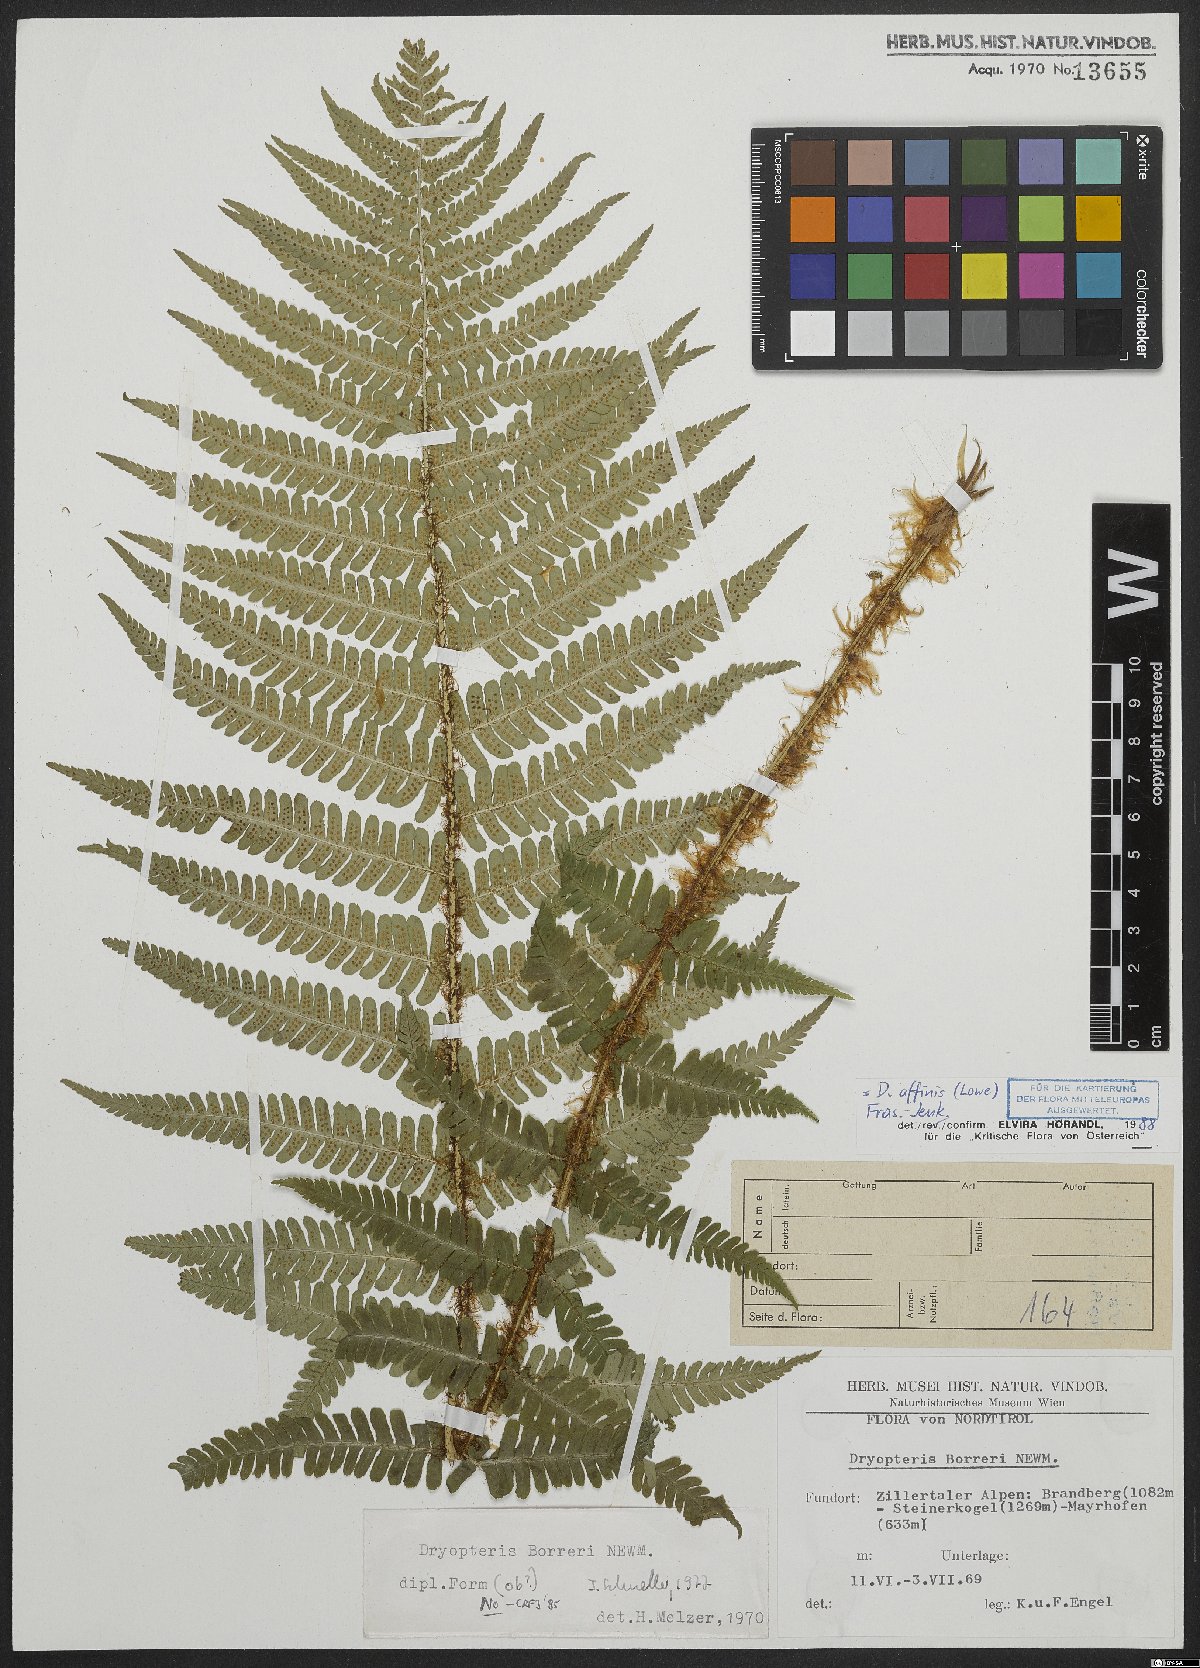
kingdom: Plantae
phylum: Tracheophyta
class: Polypodiopsida
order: Polypodiales
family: Dryopteridaceae
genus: Dryopteris
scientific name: Dryopteris borreri
